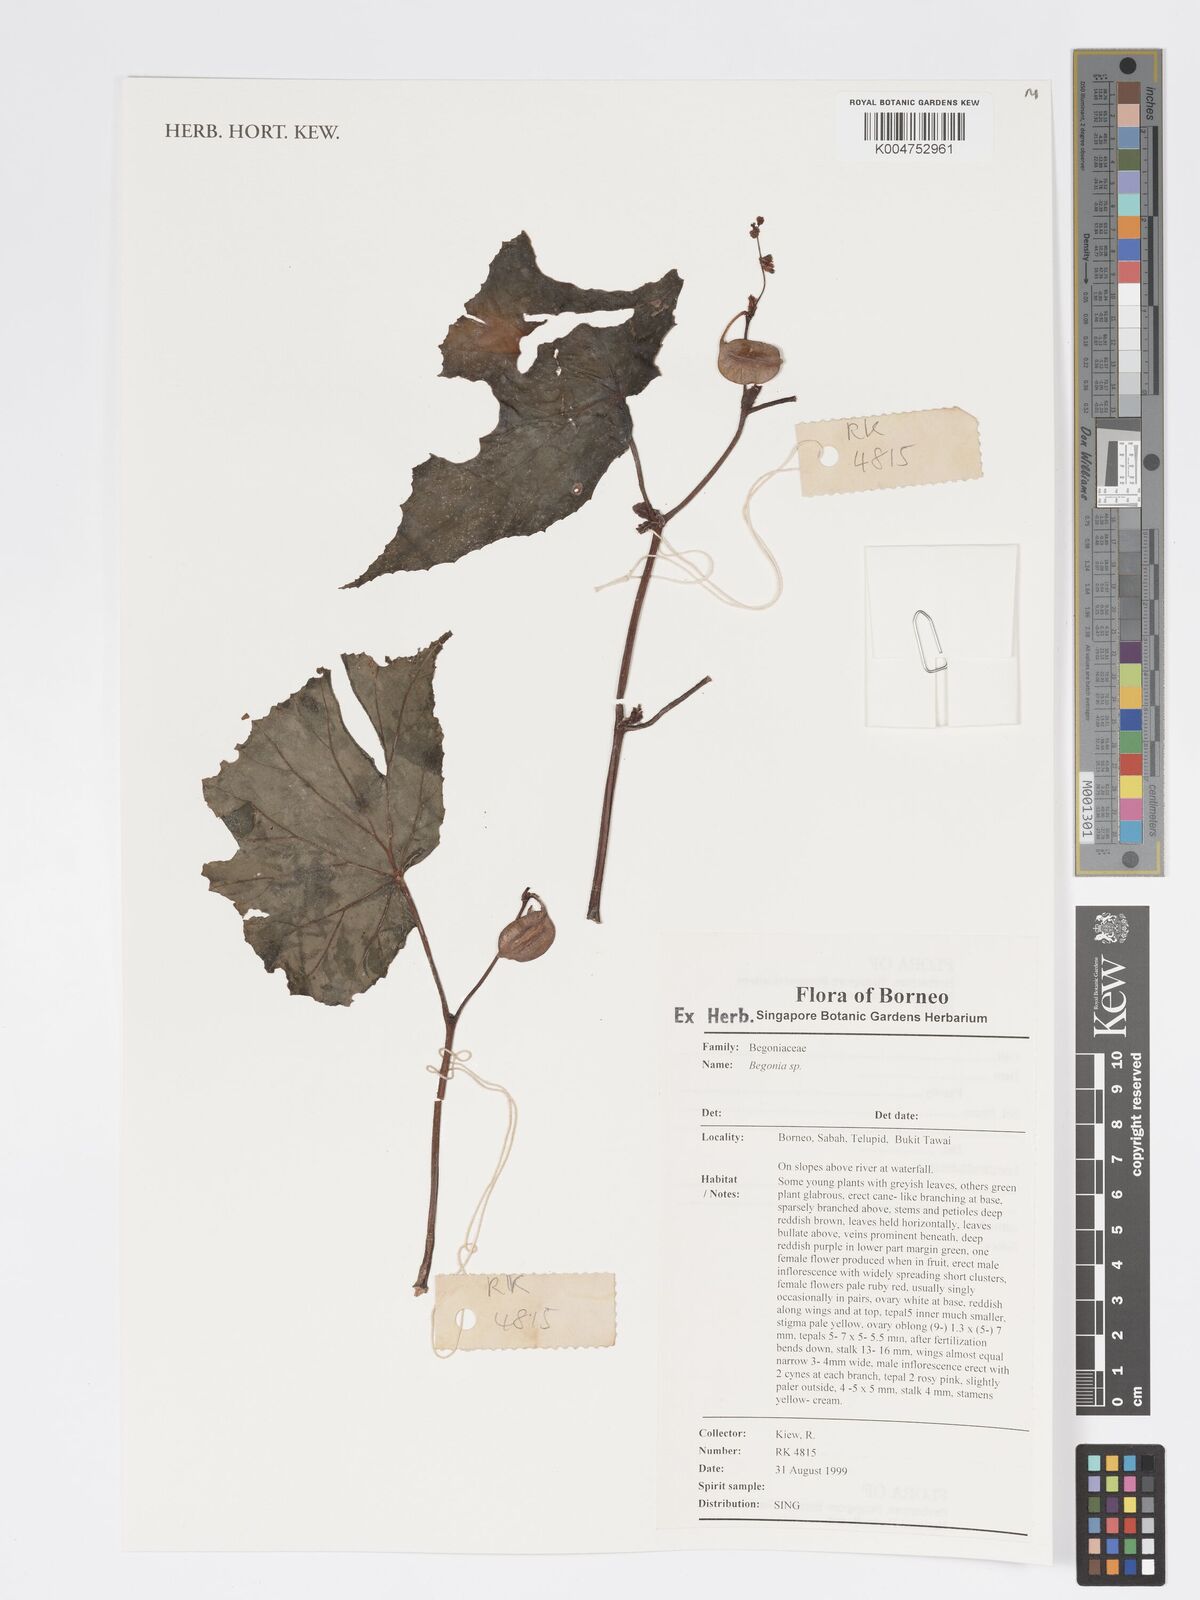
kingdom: Plantae
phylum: Tracheophyta
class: Magnoliopsida
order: Cucurbitales
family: Begoniaceae
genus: Begonia
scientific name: Begonia
